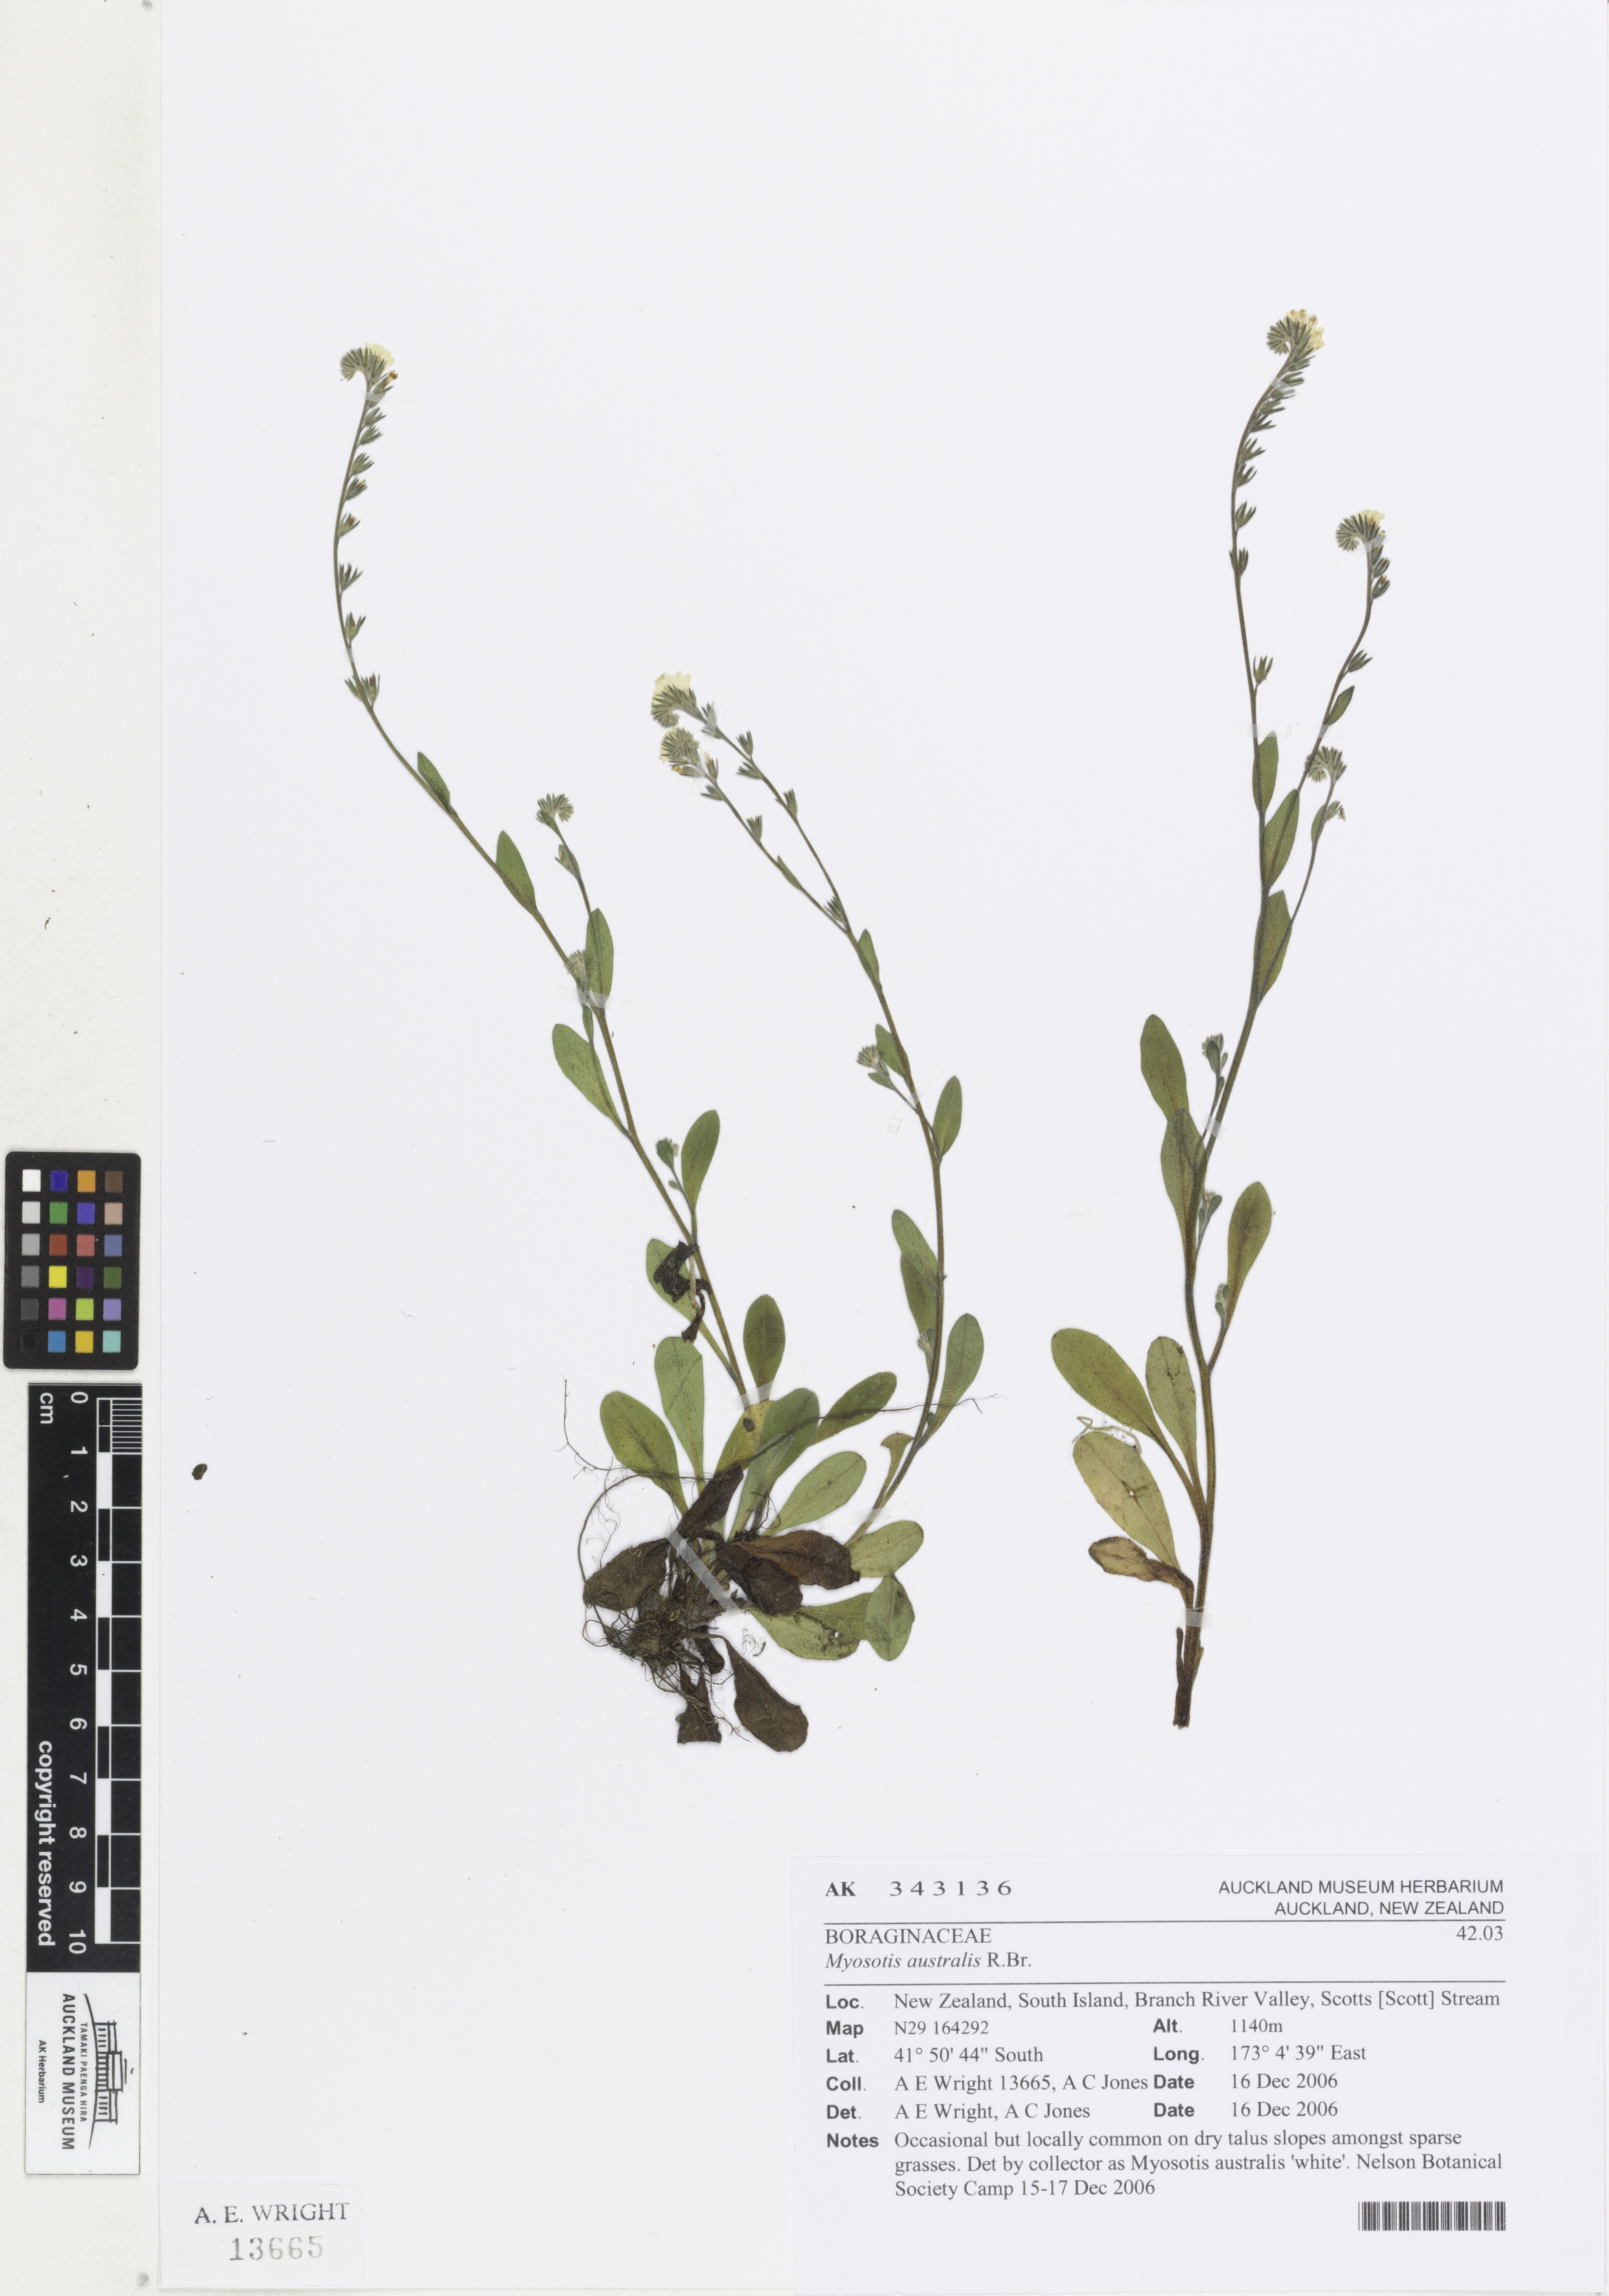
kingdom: Plantae
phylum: Tracheophyta
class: Magnoliopsida
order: Boraginales
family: Boraginaceae
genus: Myosotis
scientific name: Myosotis australis
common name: Australian forget-me-not
